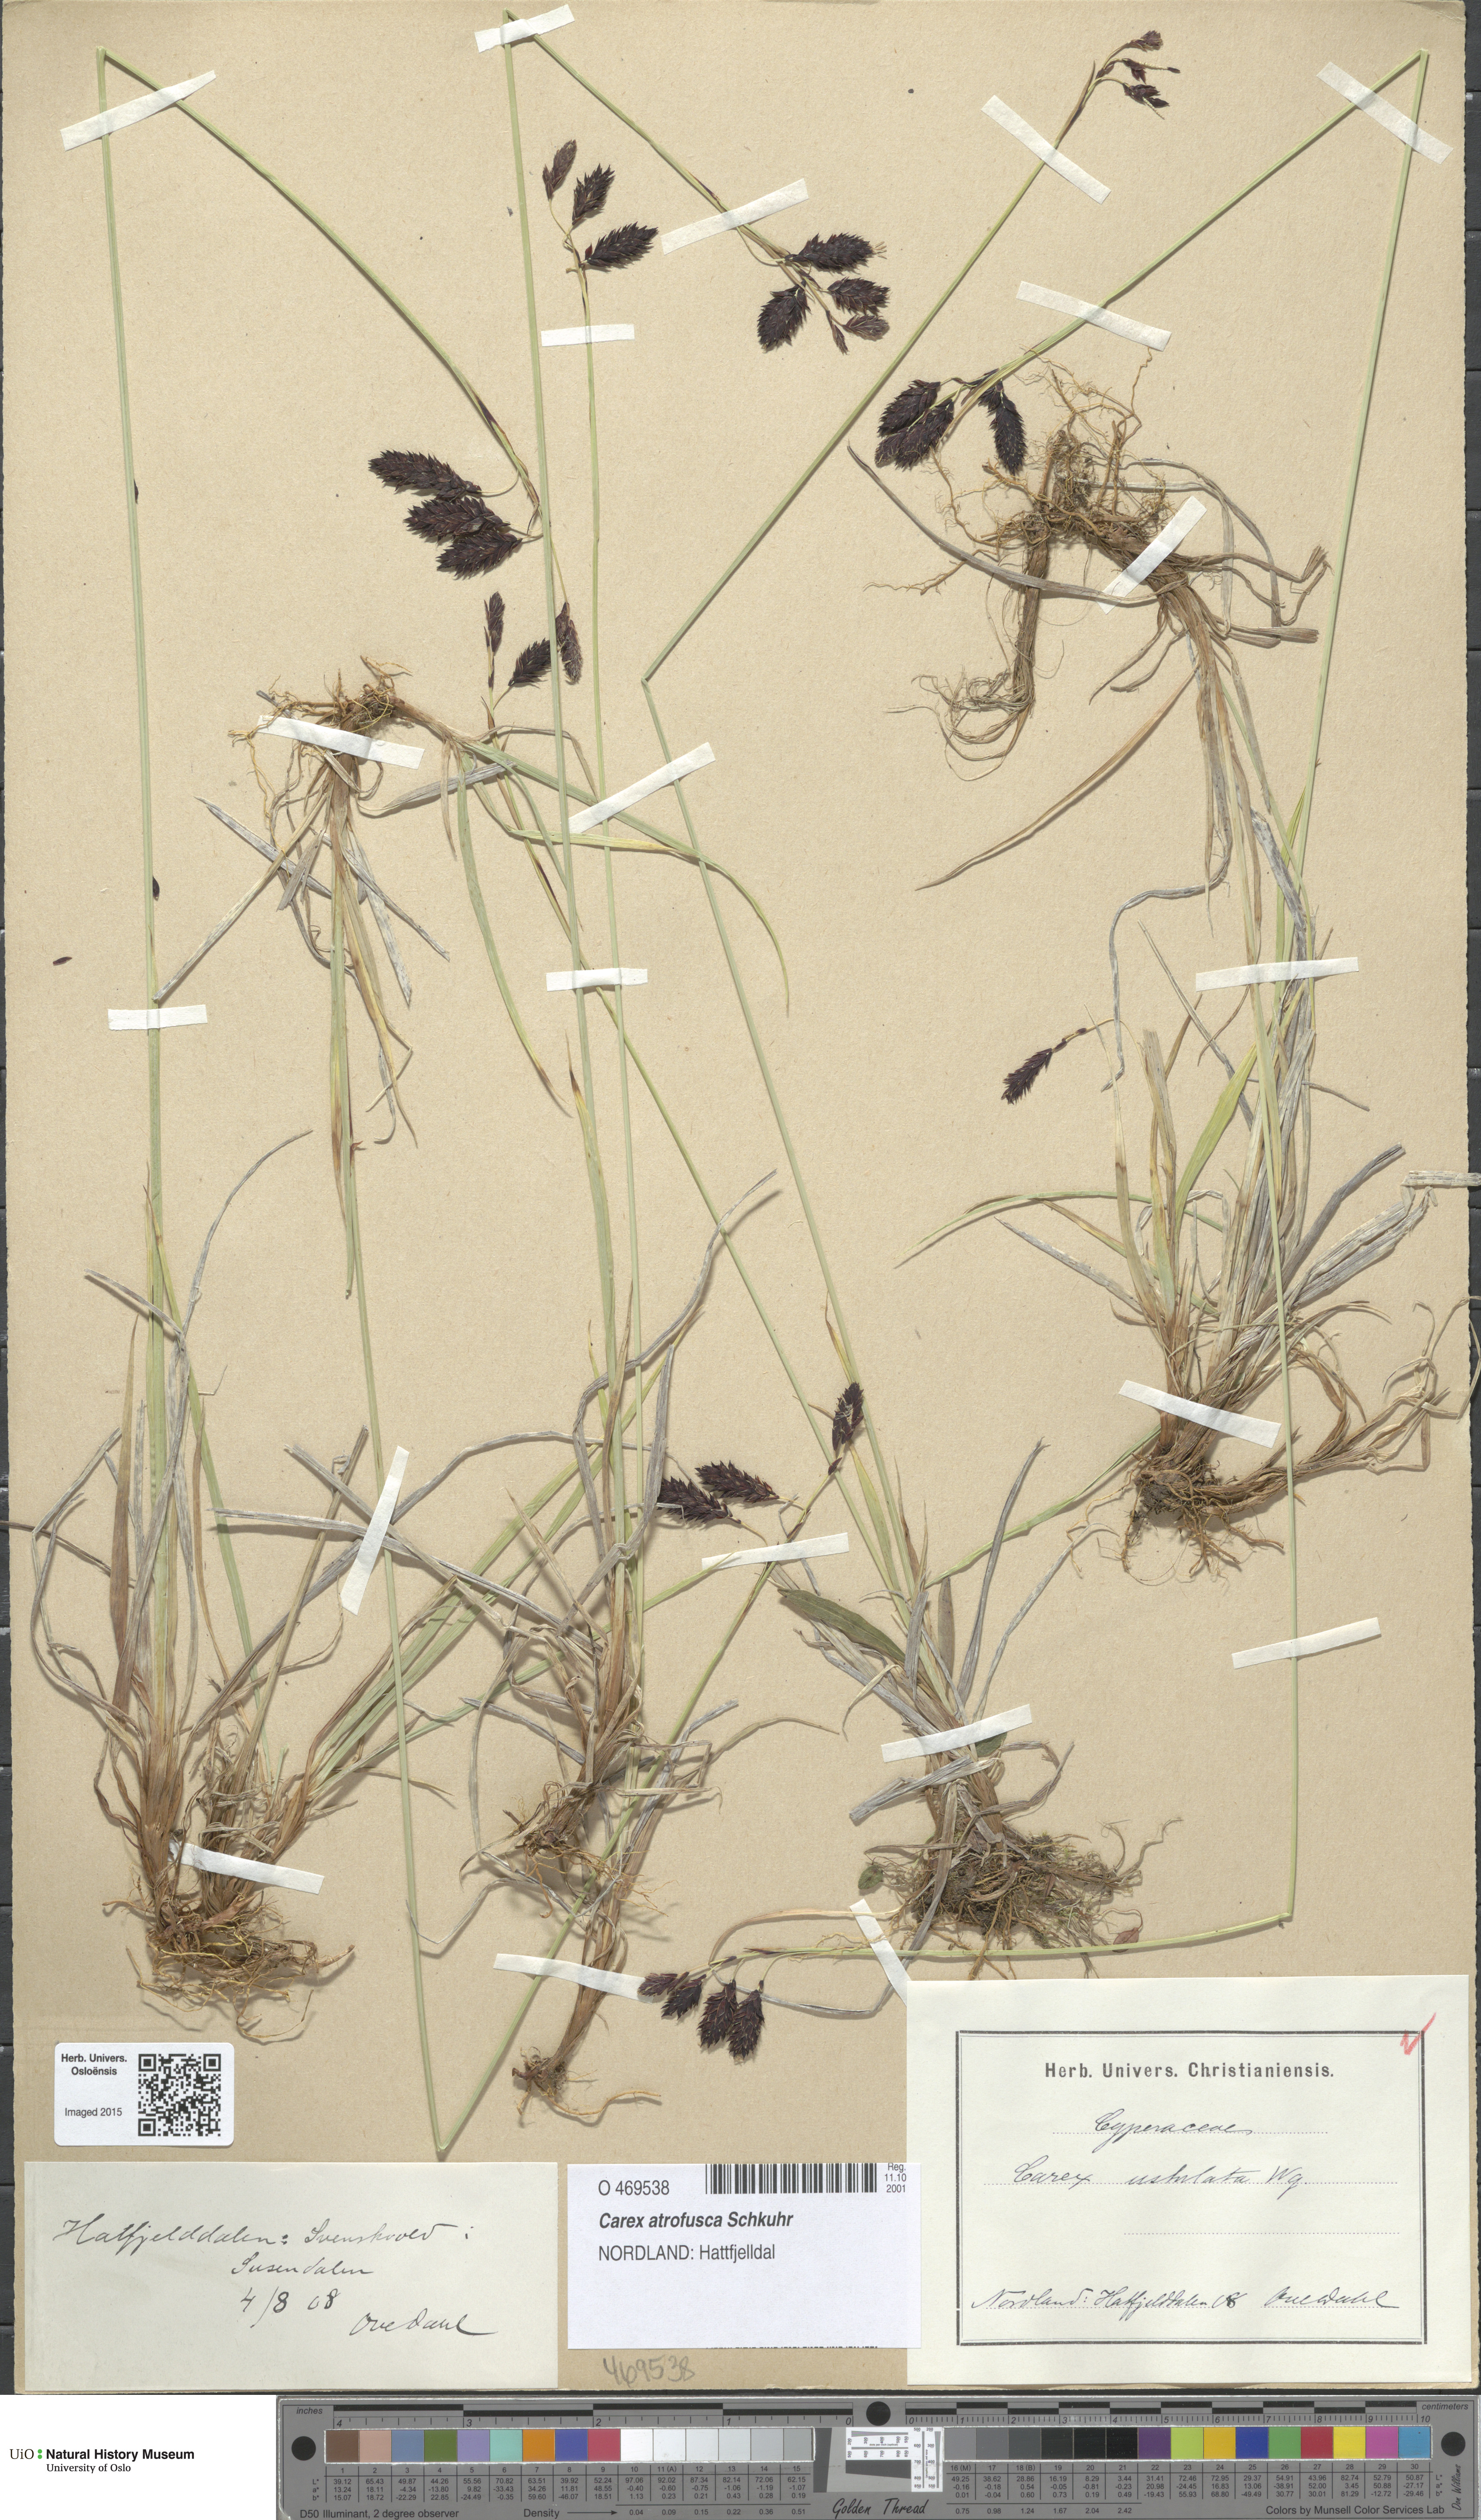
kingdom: Plantae
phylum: Tracheophyta
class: Liliopsida
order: Poales
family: Cyperaceae
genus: Carex
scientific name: Carex atrofusca
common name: Scorched alpine-sedge
